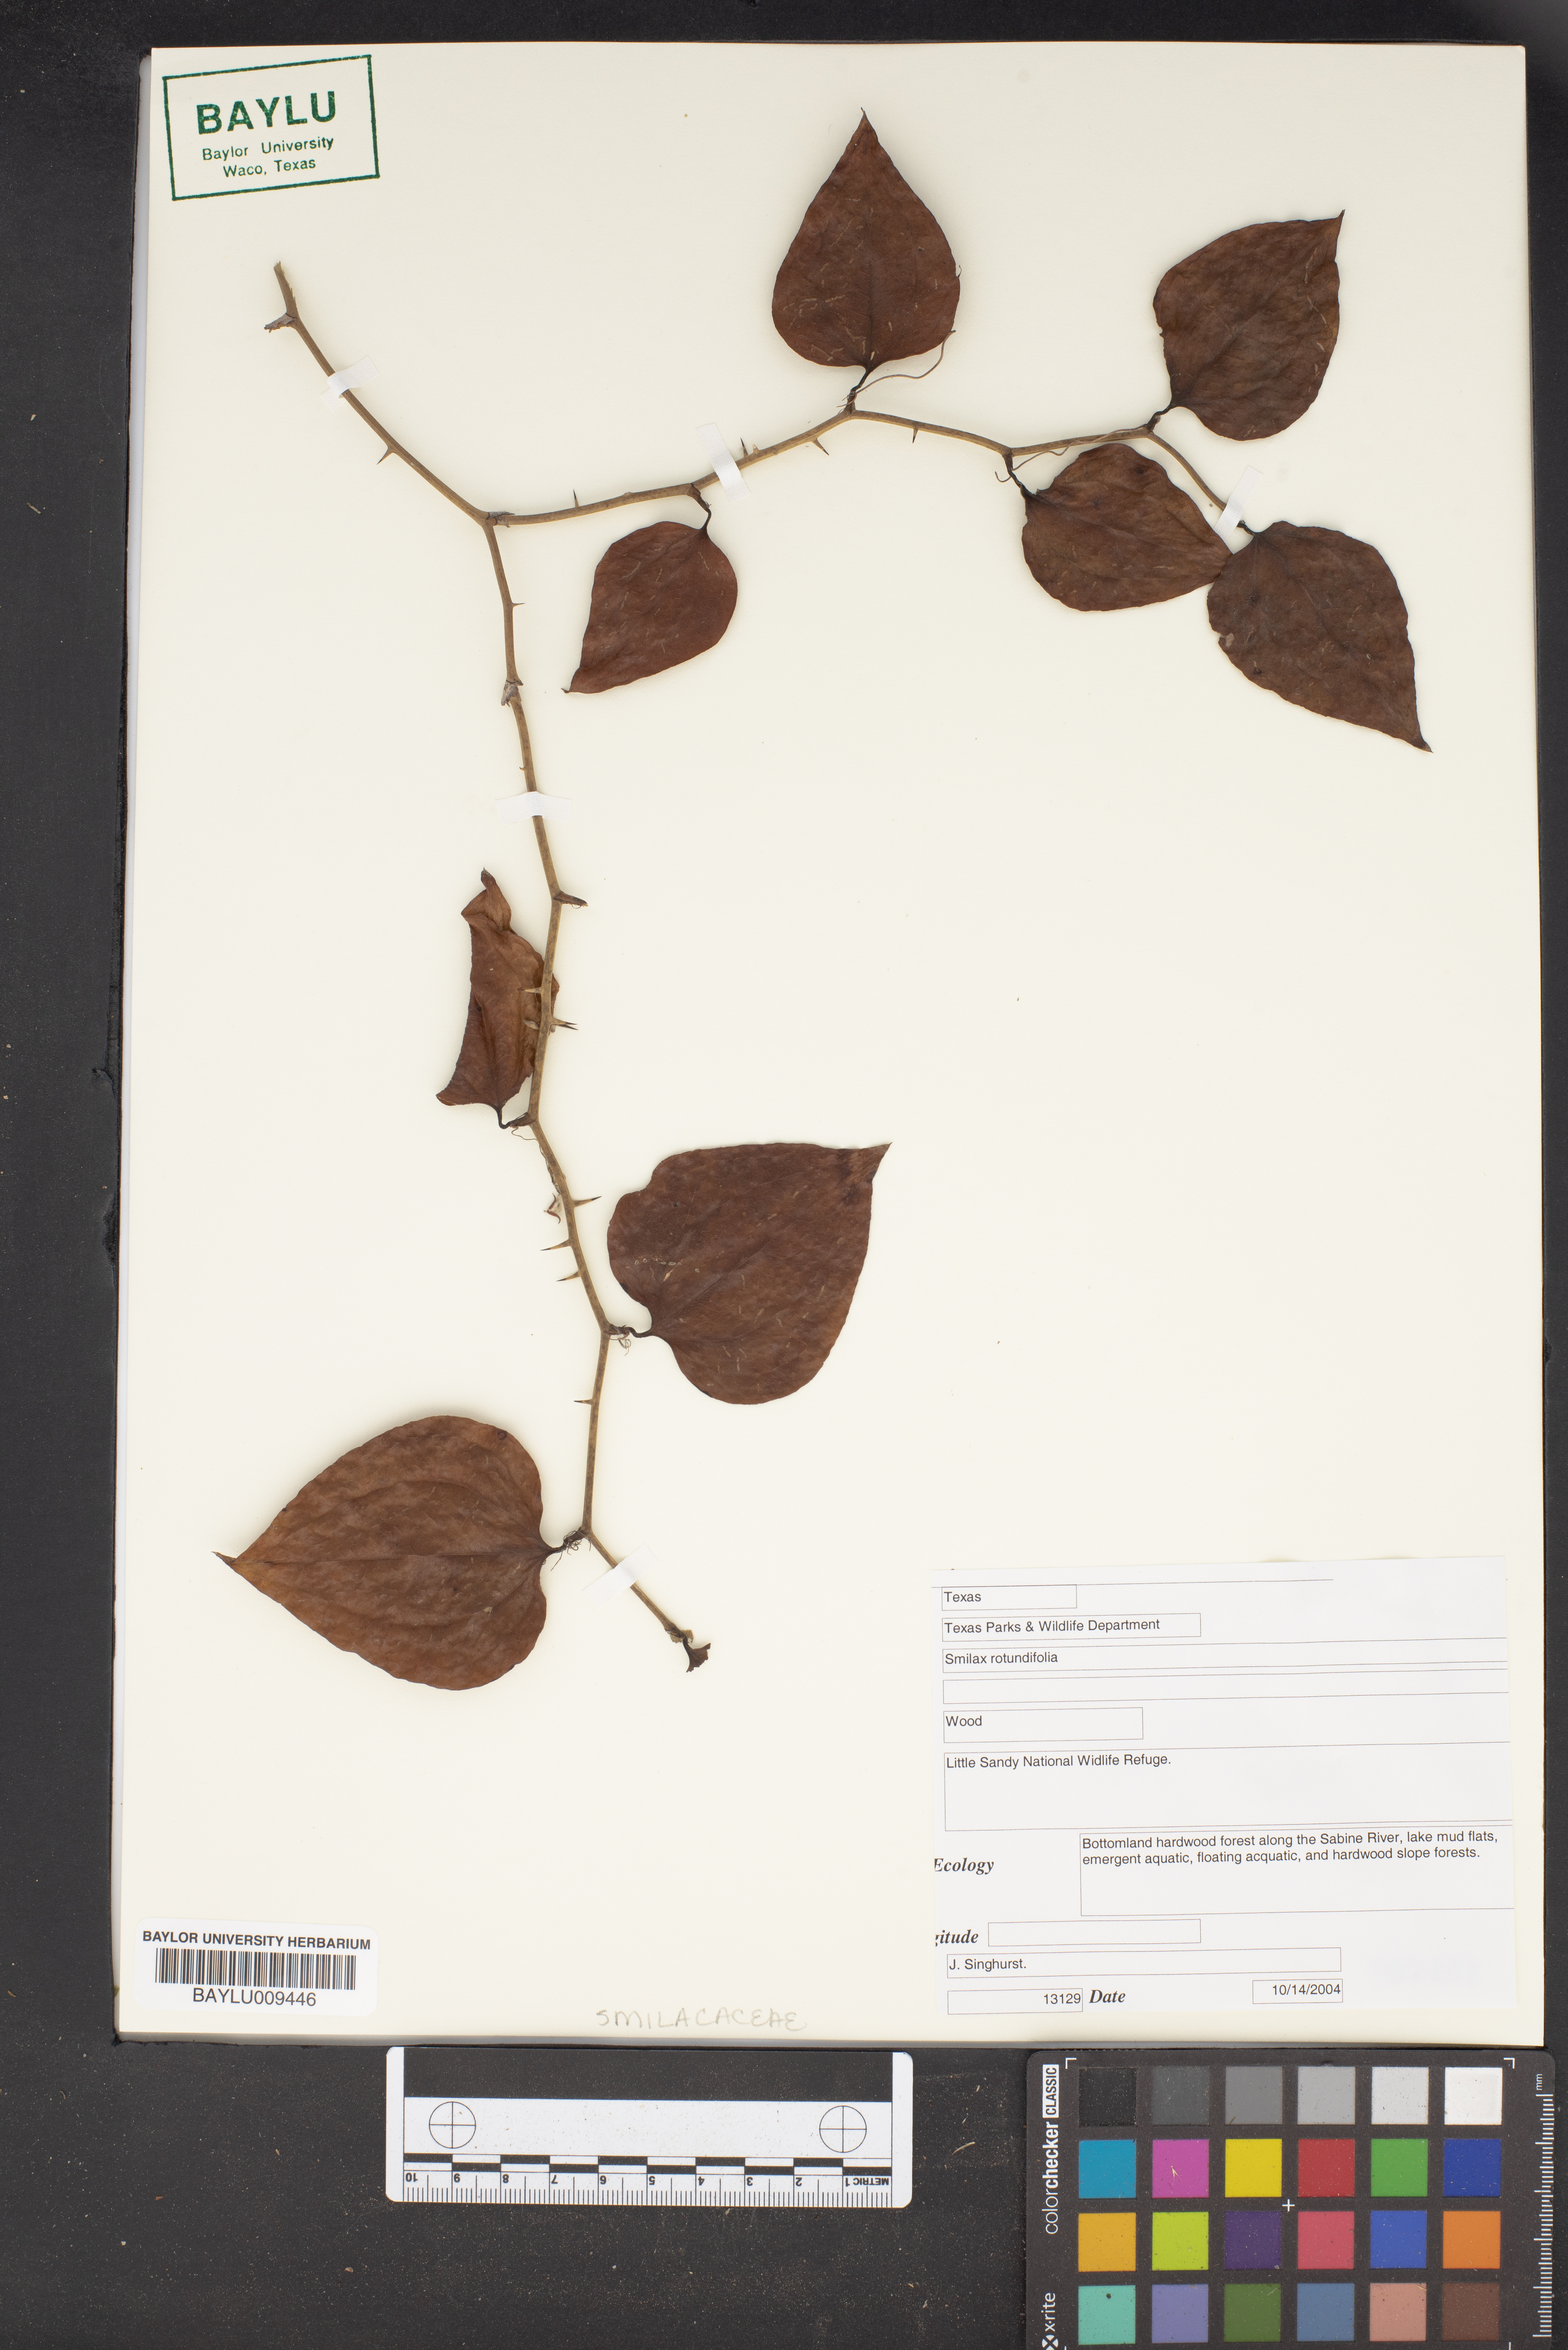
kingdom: Plantae
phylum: Tracheophyta
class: Liliopsida
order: Liliales
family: Smilacaceae
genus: Smilax
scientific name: Smilax rotundifolia
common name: Bullbriar
